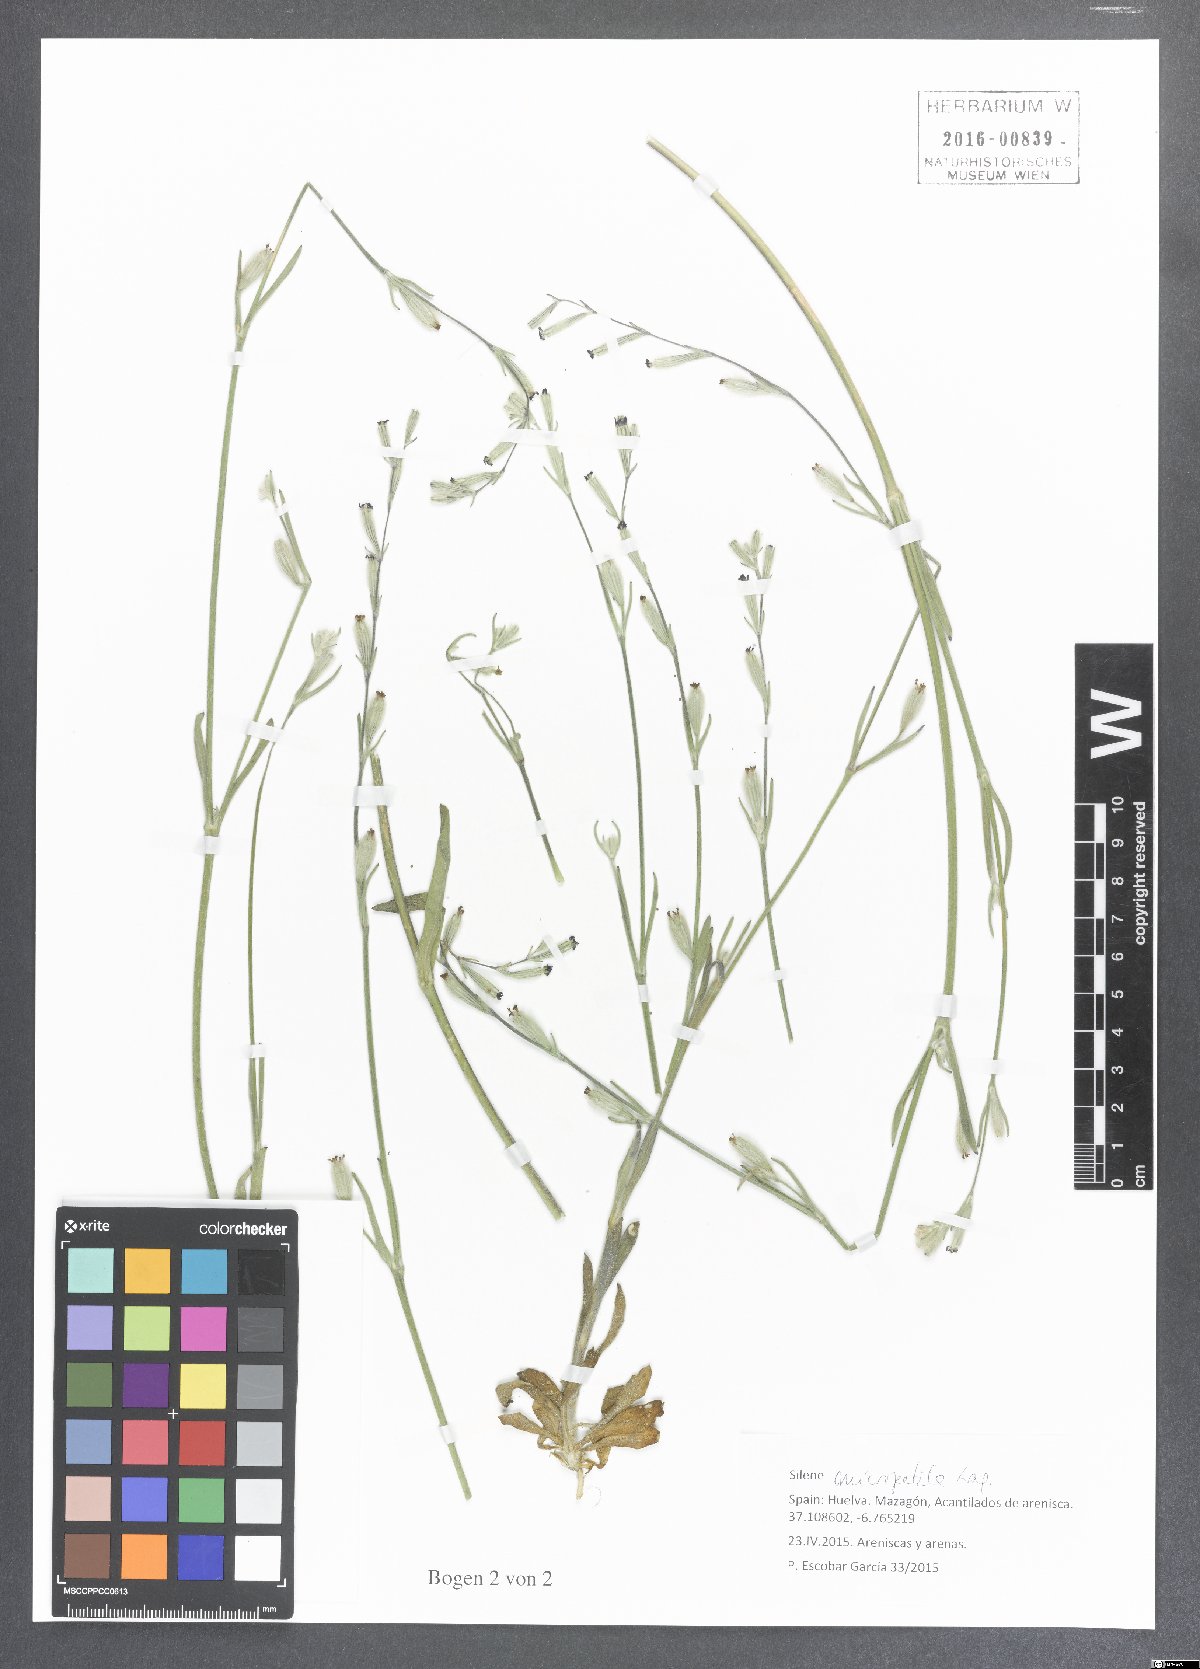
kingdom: Plantae
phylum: Tracheophyta
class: Magnoliopsida
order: Caryophyllales
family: Caryophyllaceae
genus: Silene
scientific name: Silene micropetala
